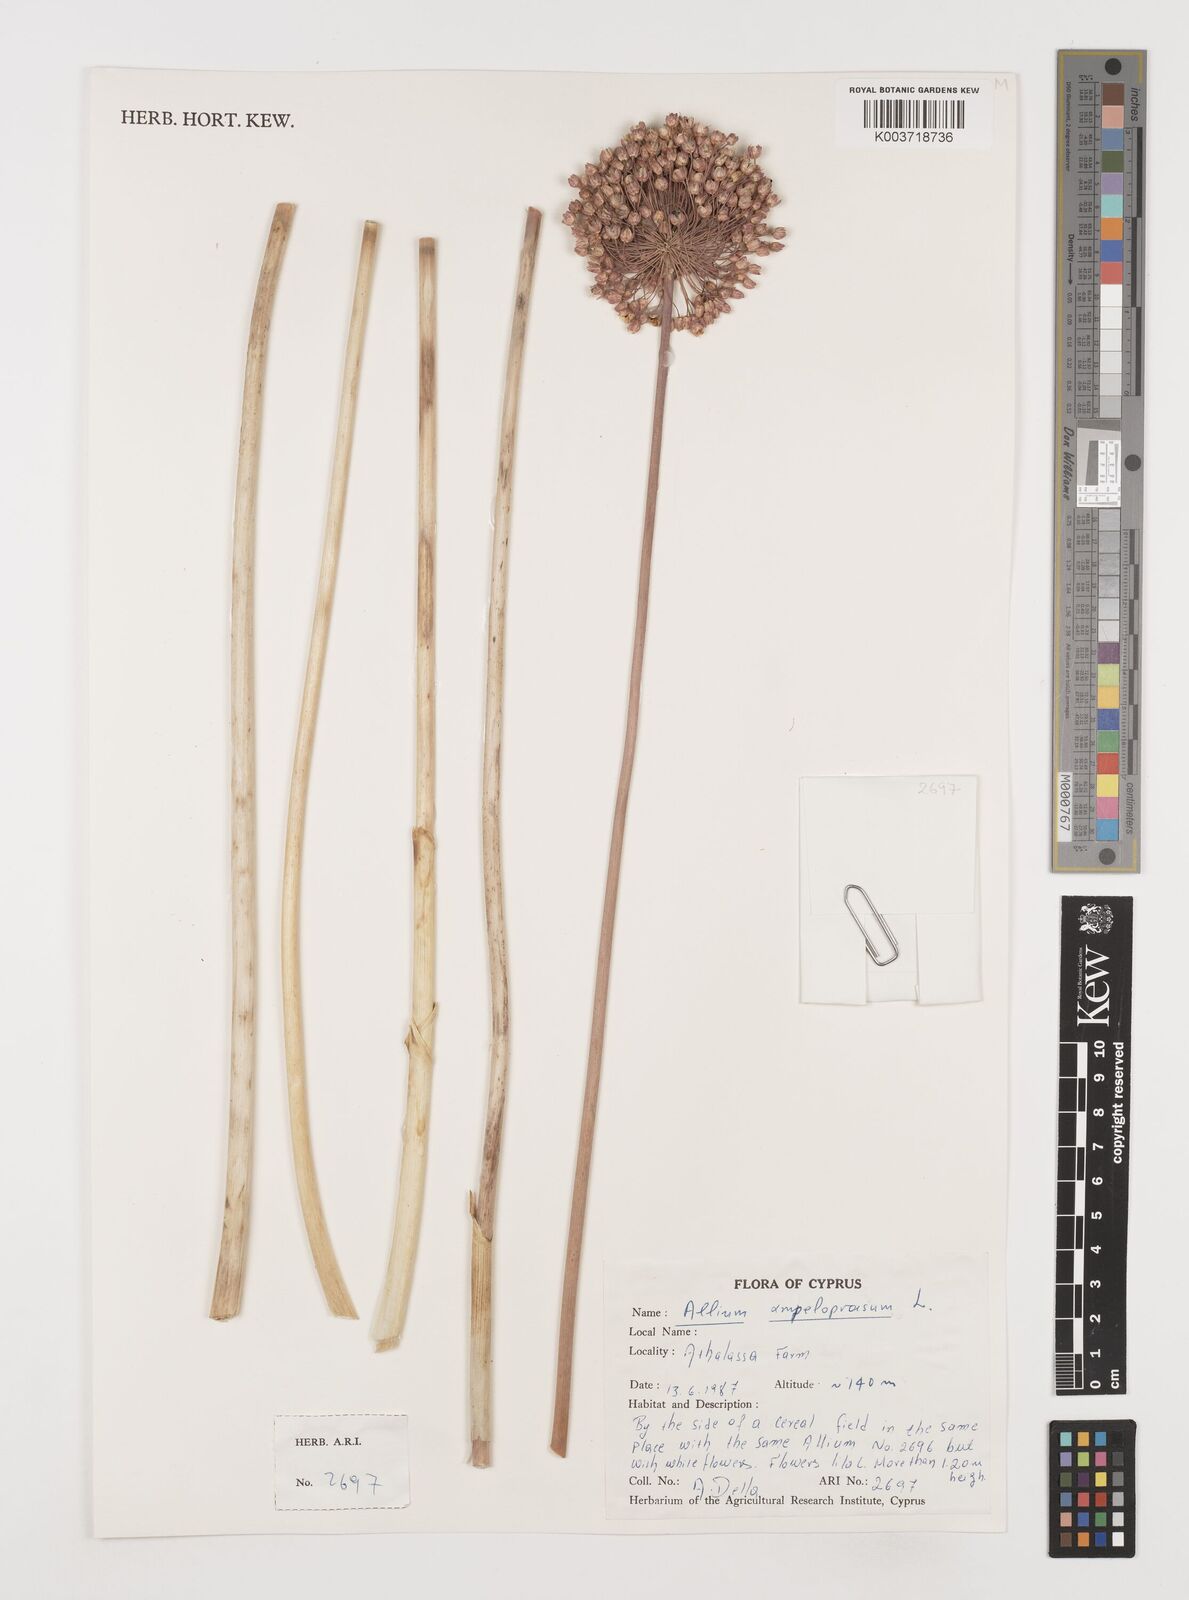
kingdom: Plantae
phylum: Tracheophyta
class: Liliopsida
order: Asparagales
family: Amaryllidaceae
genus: Allium
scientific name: Allium ampeloprasum
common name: Wild leek
